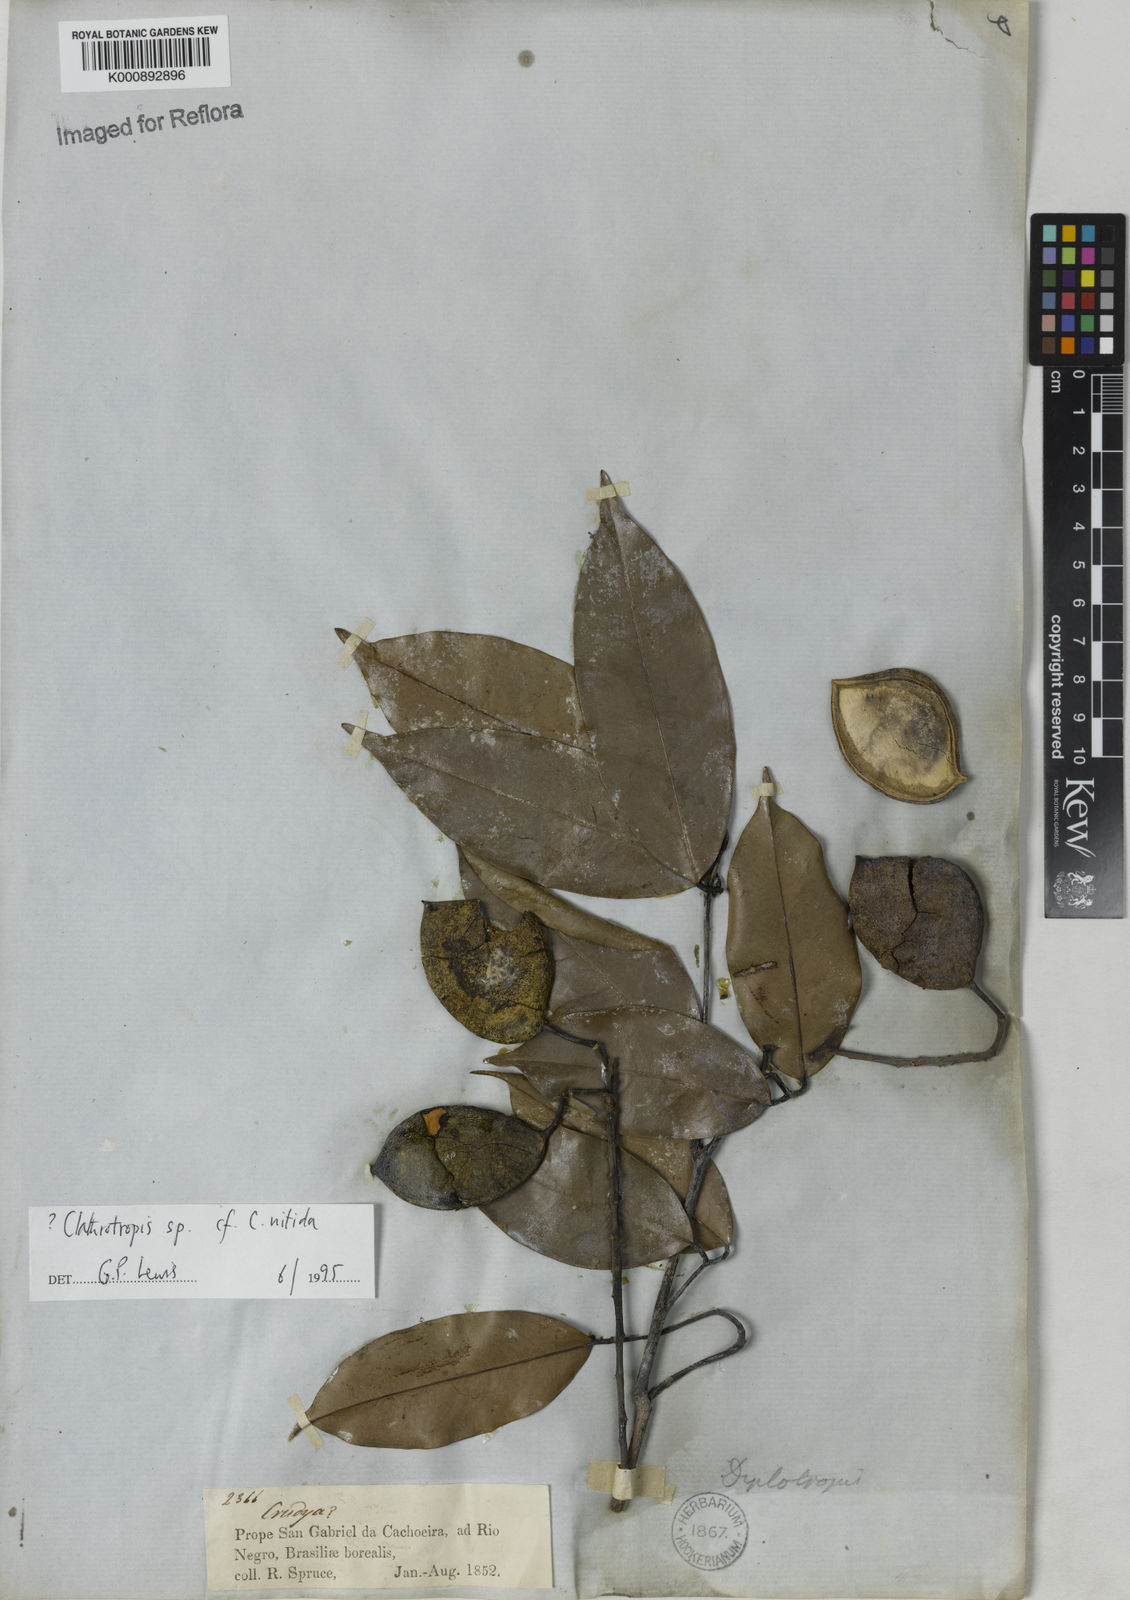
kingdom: Plantae
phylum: Tracheophyta
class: Magnoliopsida
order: Fabales
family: Fabaceae
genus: Clathrotropis
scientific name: Clathrotropis
